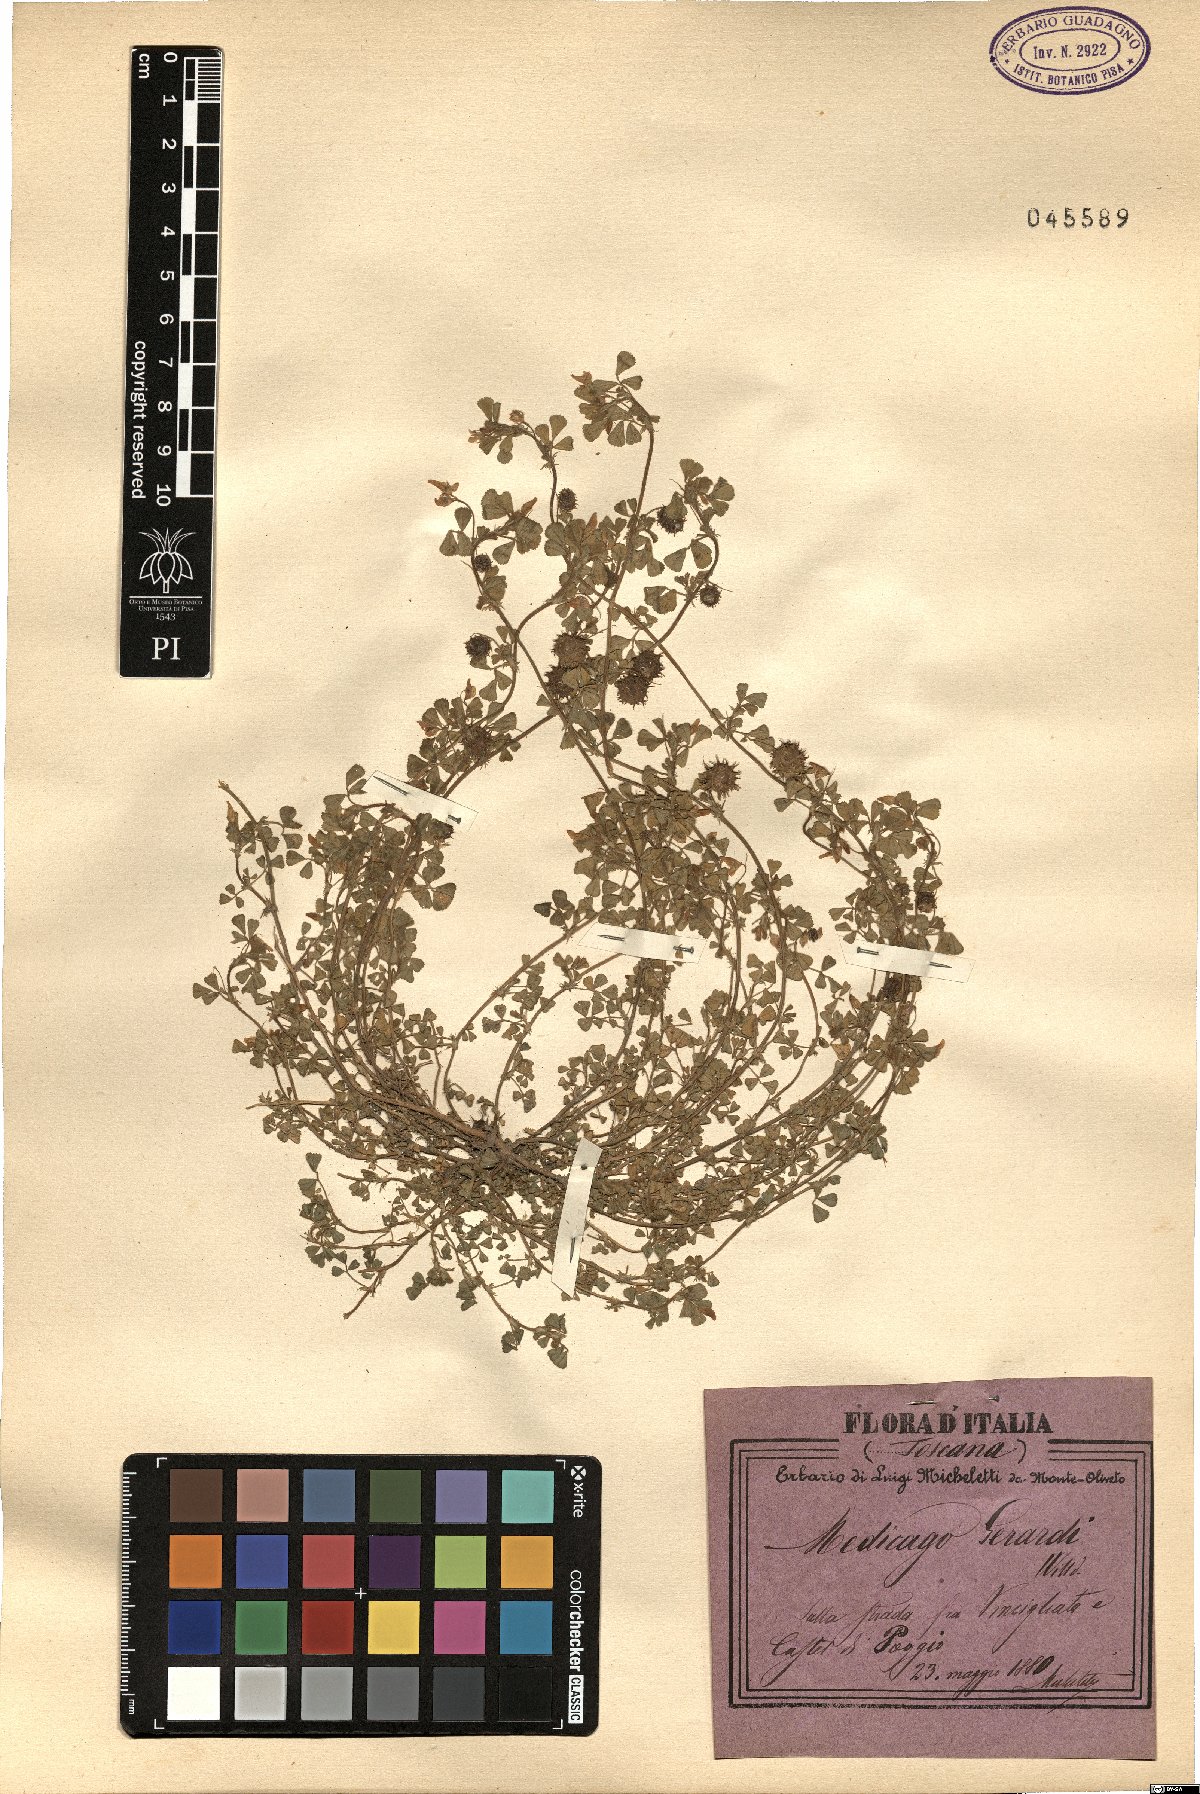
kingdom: Plantae
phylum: Tracheophyta
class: Magnoliopsida
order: Fabales
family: Fabaceae
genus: Medicago
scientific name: Medicago rigidula
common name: Tifton medic
